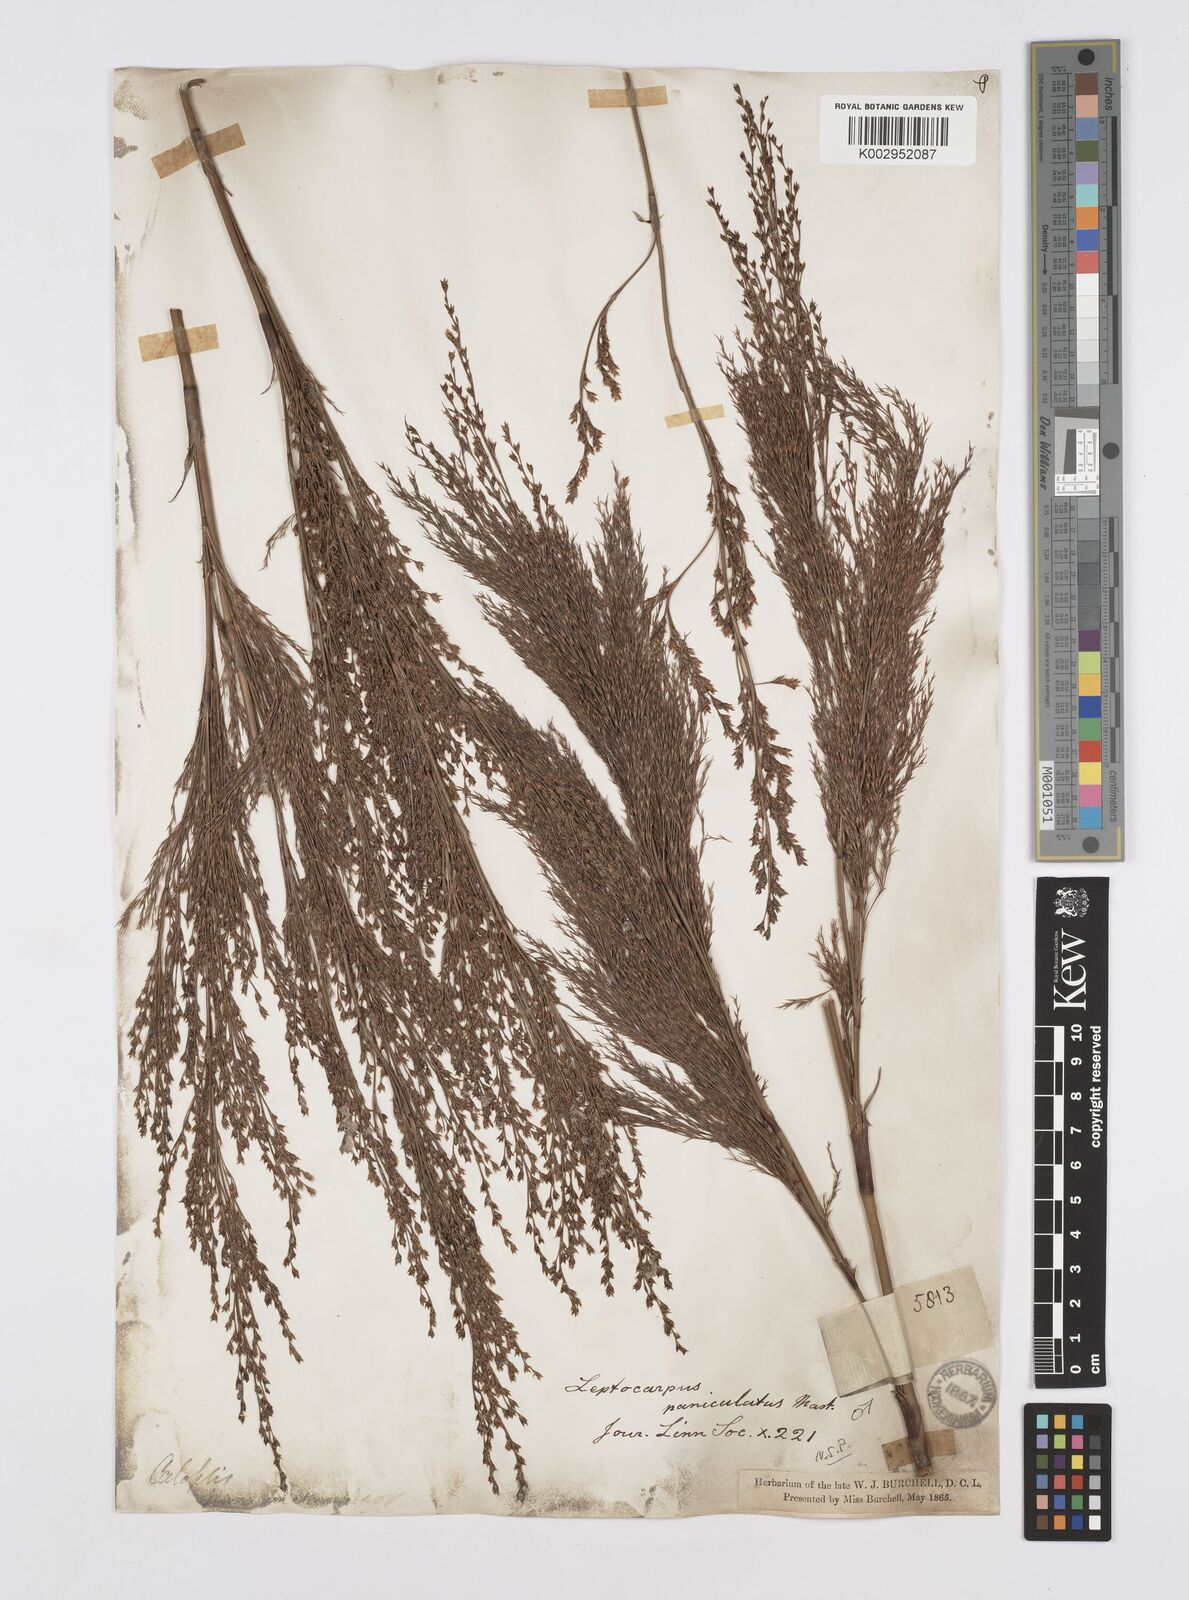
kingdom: Plantae
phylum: Tracheophyta
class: Liliopsida
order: Poales
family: Restionaceae
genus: Restio
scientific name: Restio paniculatus
